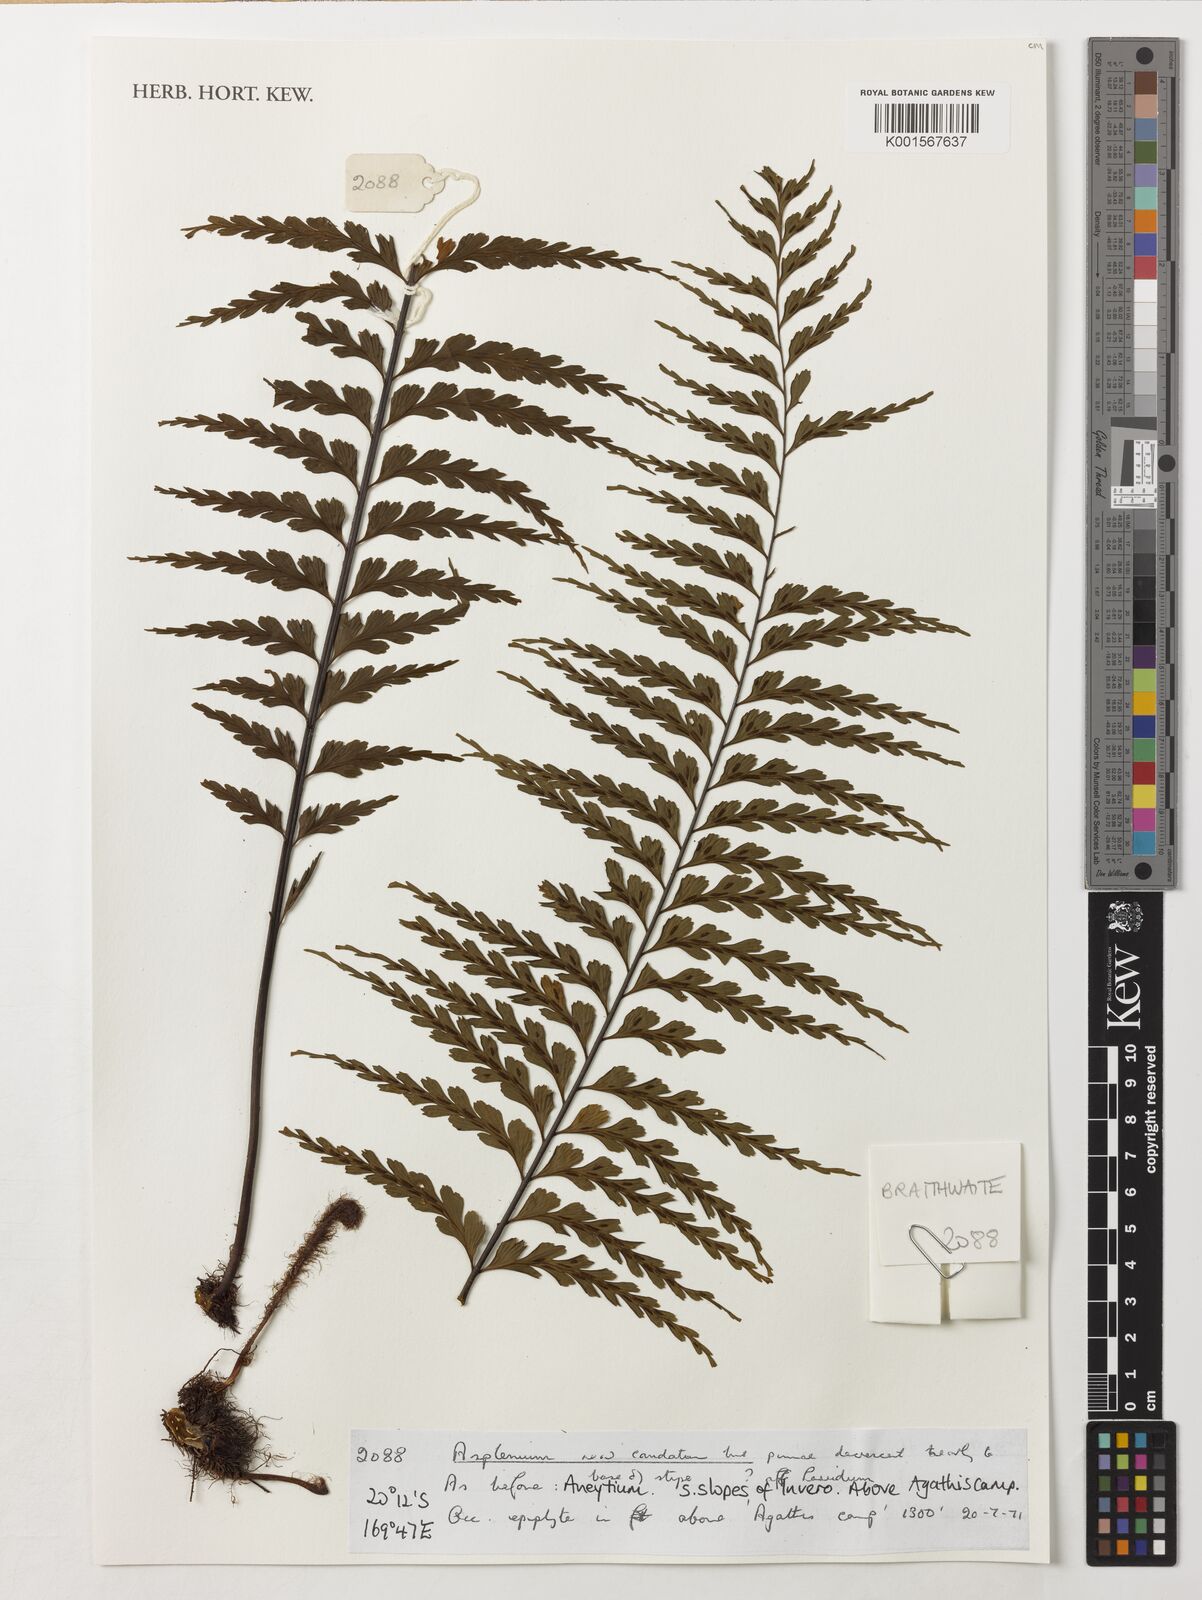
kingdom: Plantae
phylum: Tracheophyta
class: Polypodiopsida
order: Polypodiales
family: Aspleniaceae
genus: Asplenium
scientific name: Asplenium caudatum
